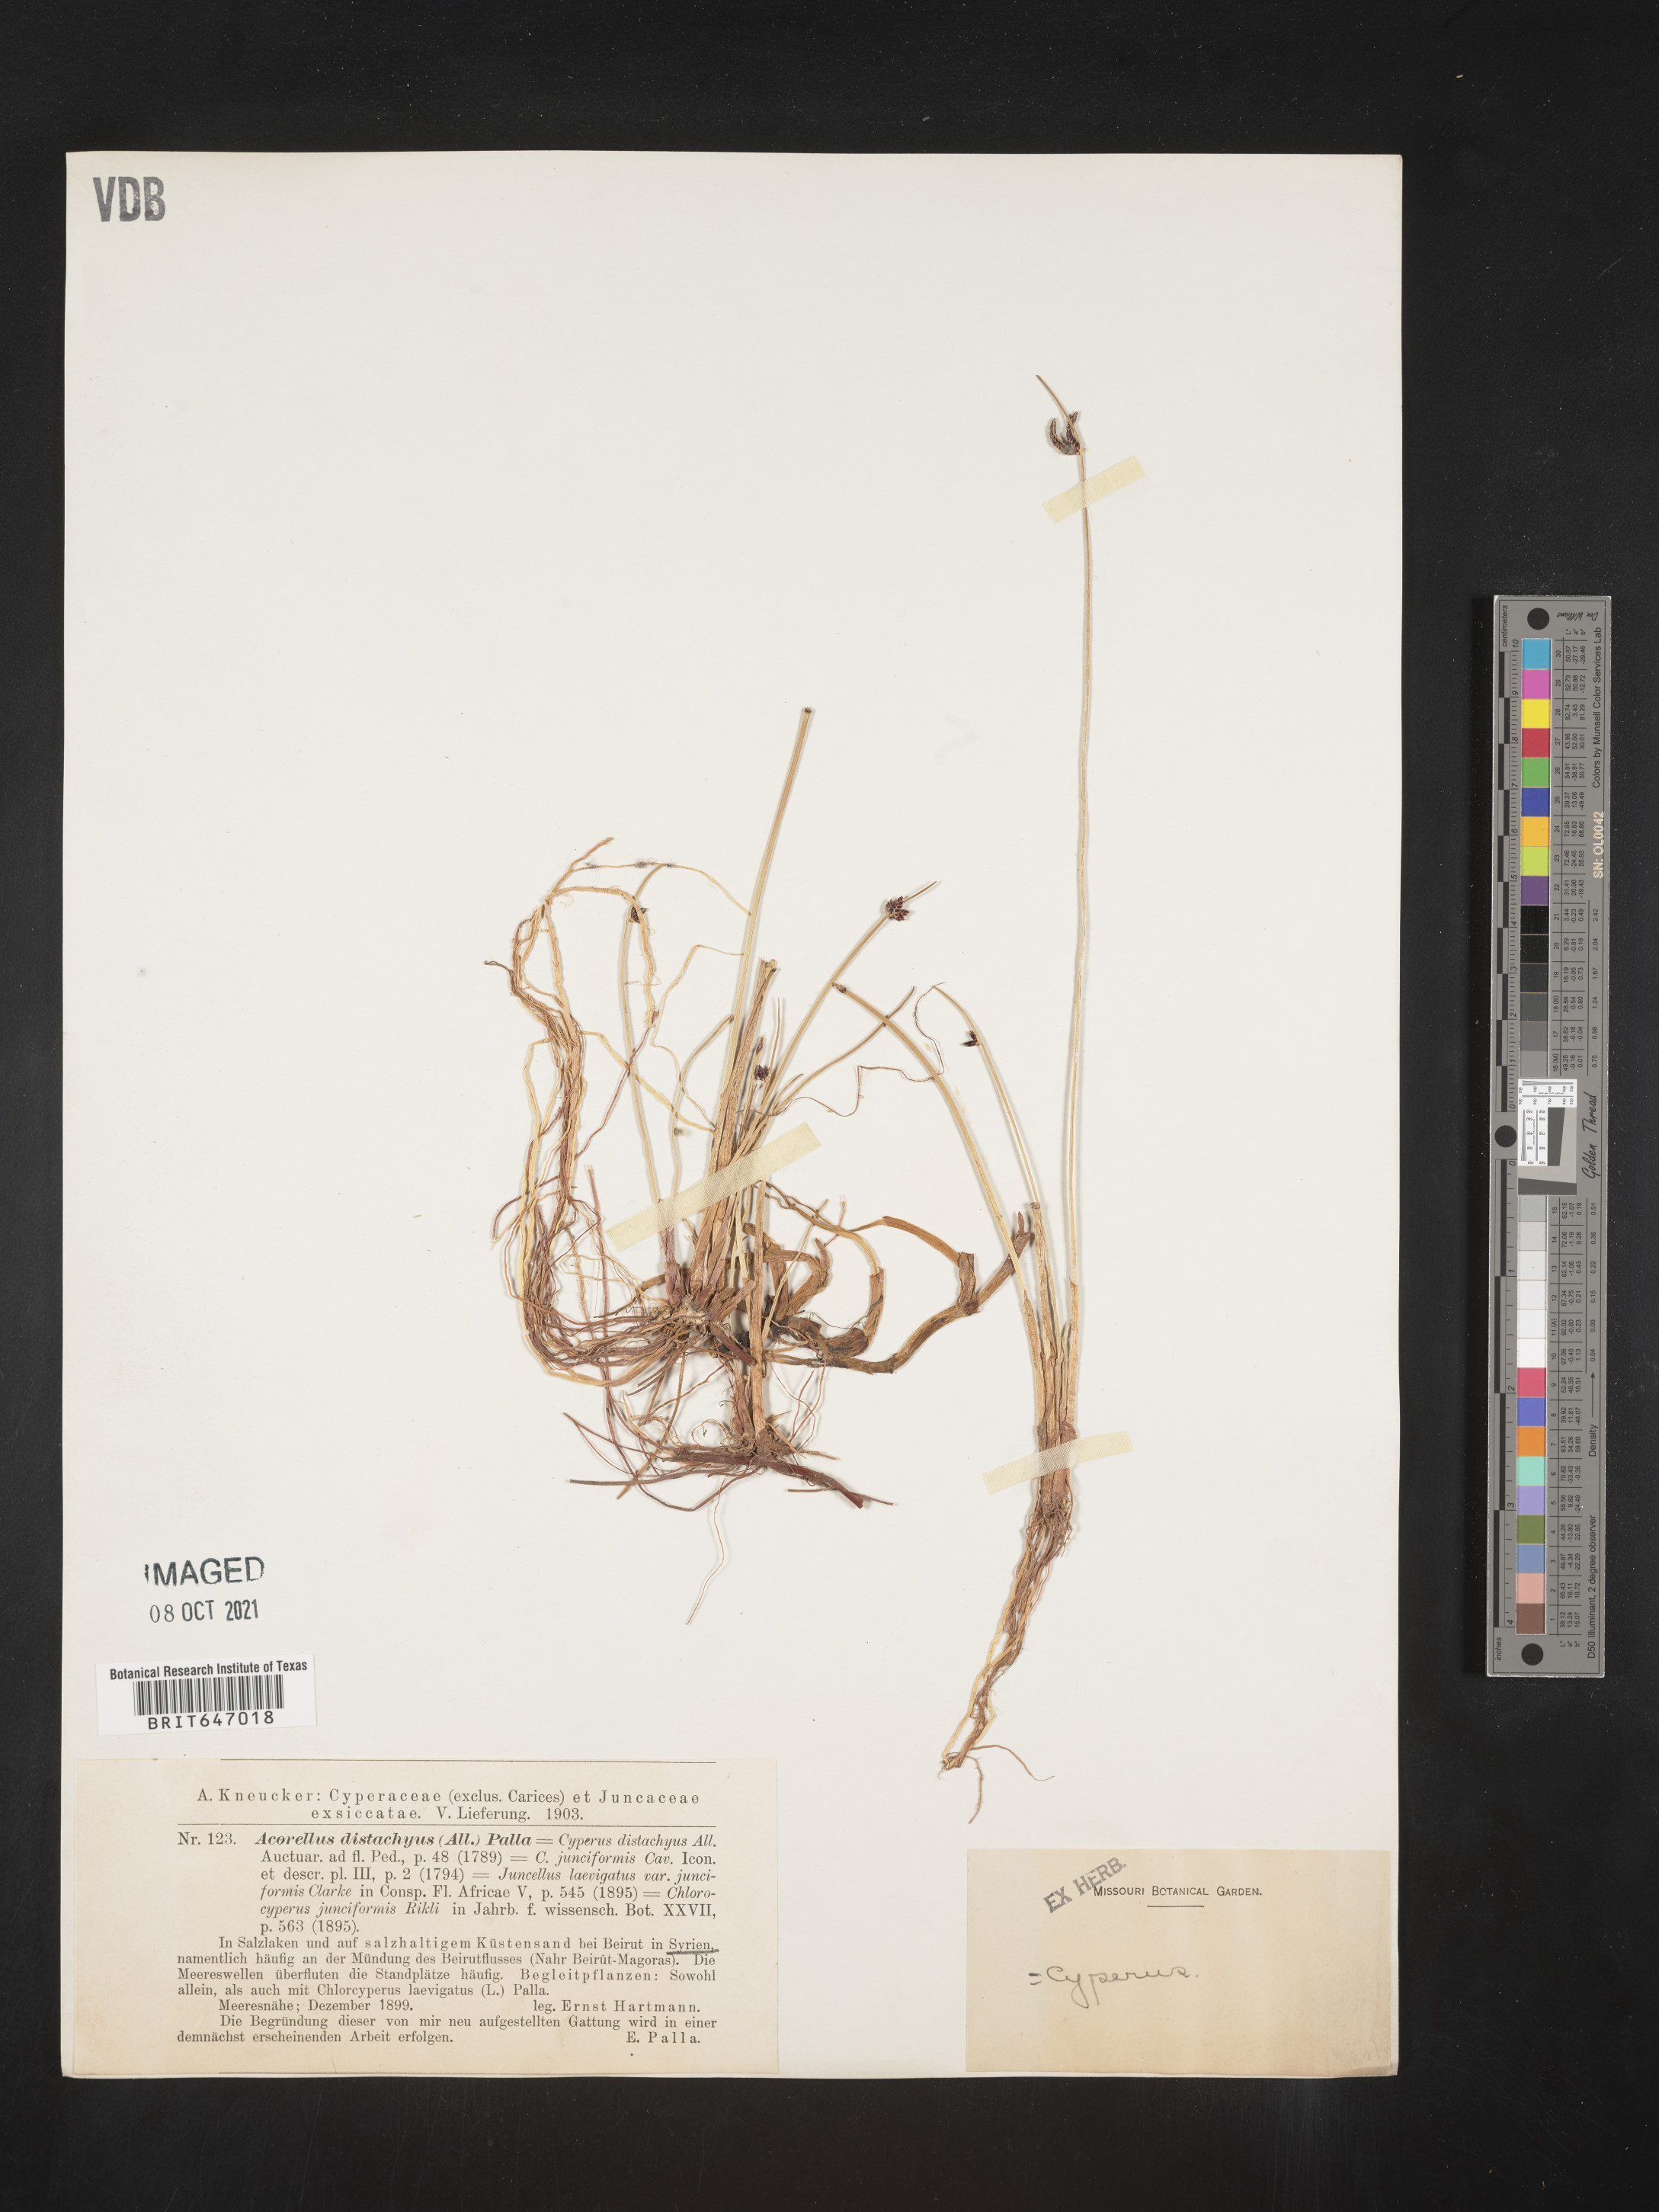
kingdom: Plantae
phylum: Tracheophyta
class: Liliopsida
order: Poales
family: Cyperaceae
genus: Cyperus
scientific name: Cyperus laevigatus
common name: Smooth flat sedge
